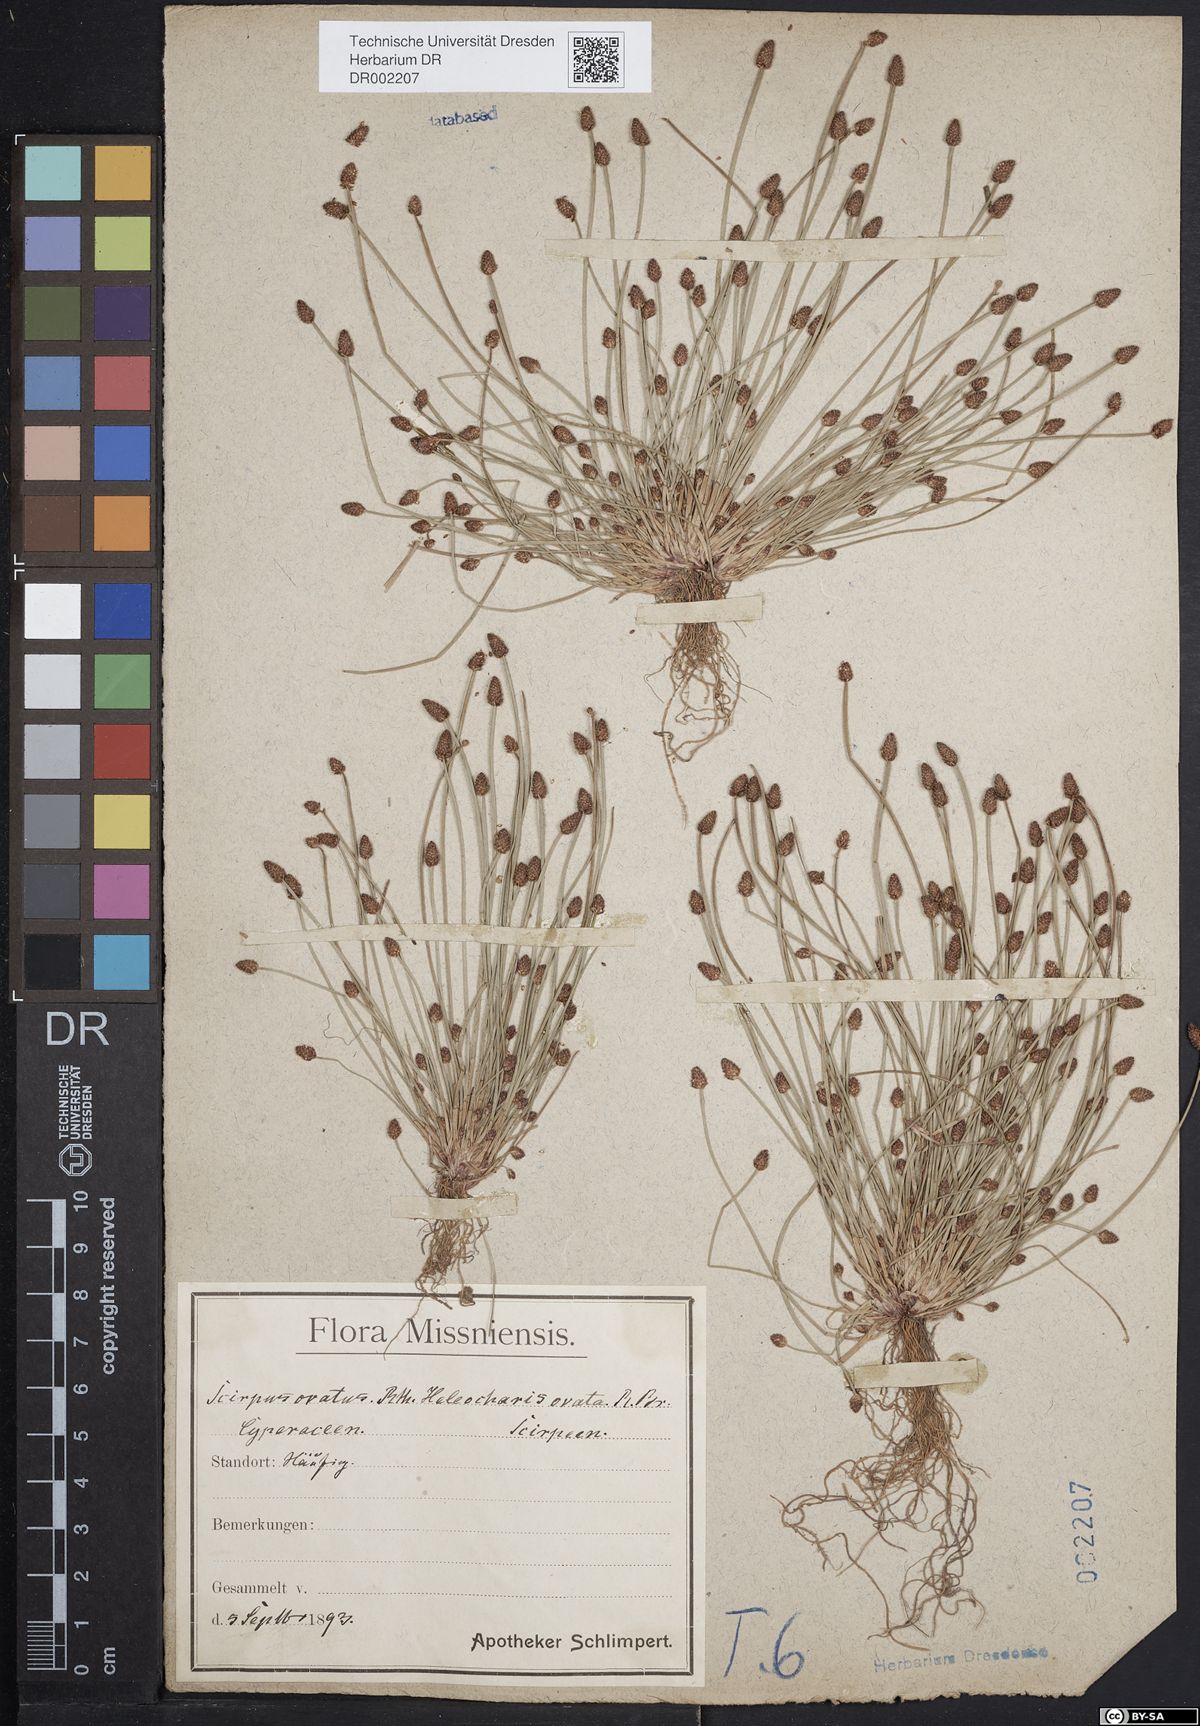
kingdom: Plantae
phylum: Tracheophyta
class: Liliopsida
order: Poales
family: Cyperaceae
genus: Eleocharis
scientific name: Eleocharis ovata
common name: Oval spike-rush
